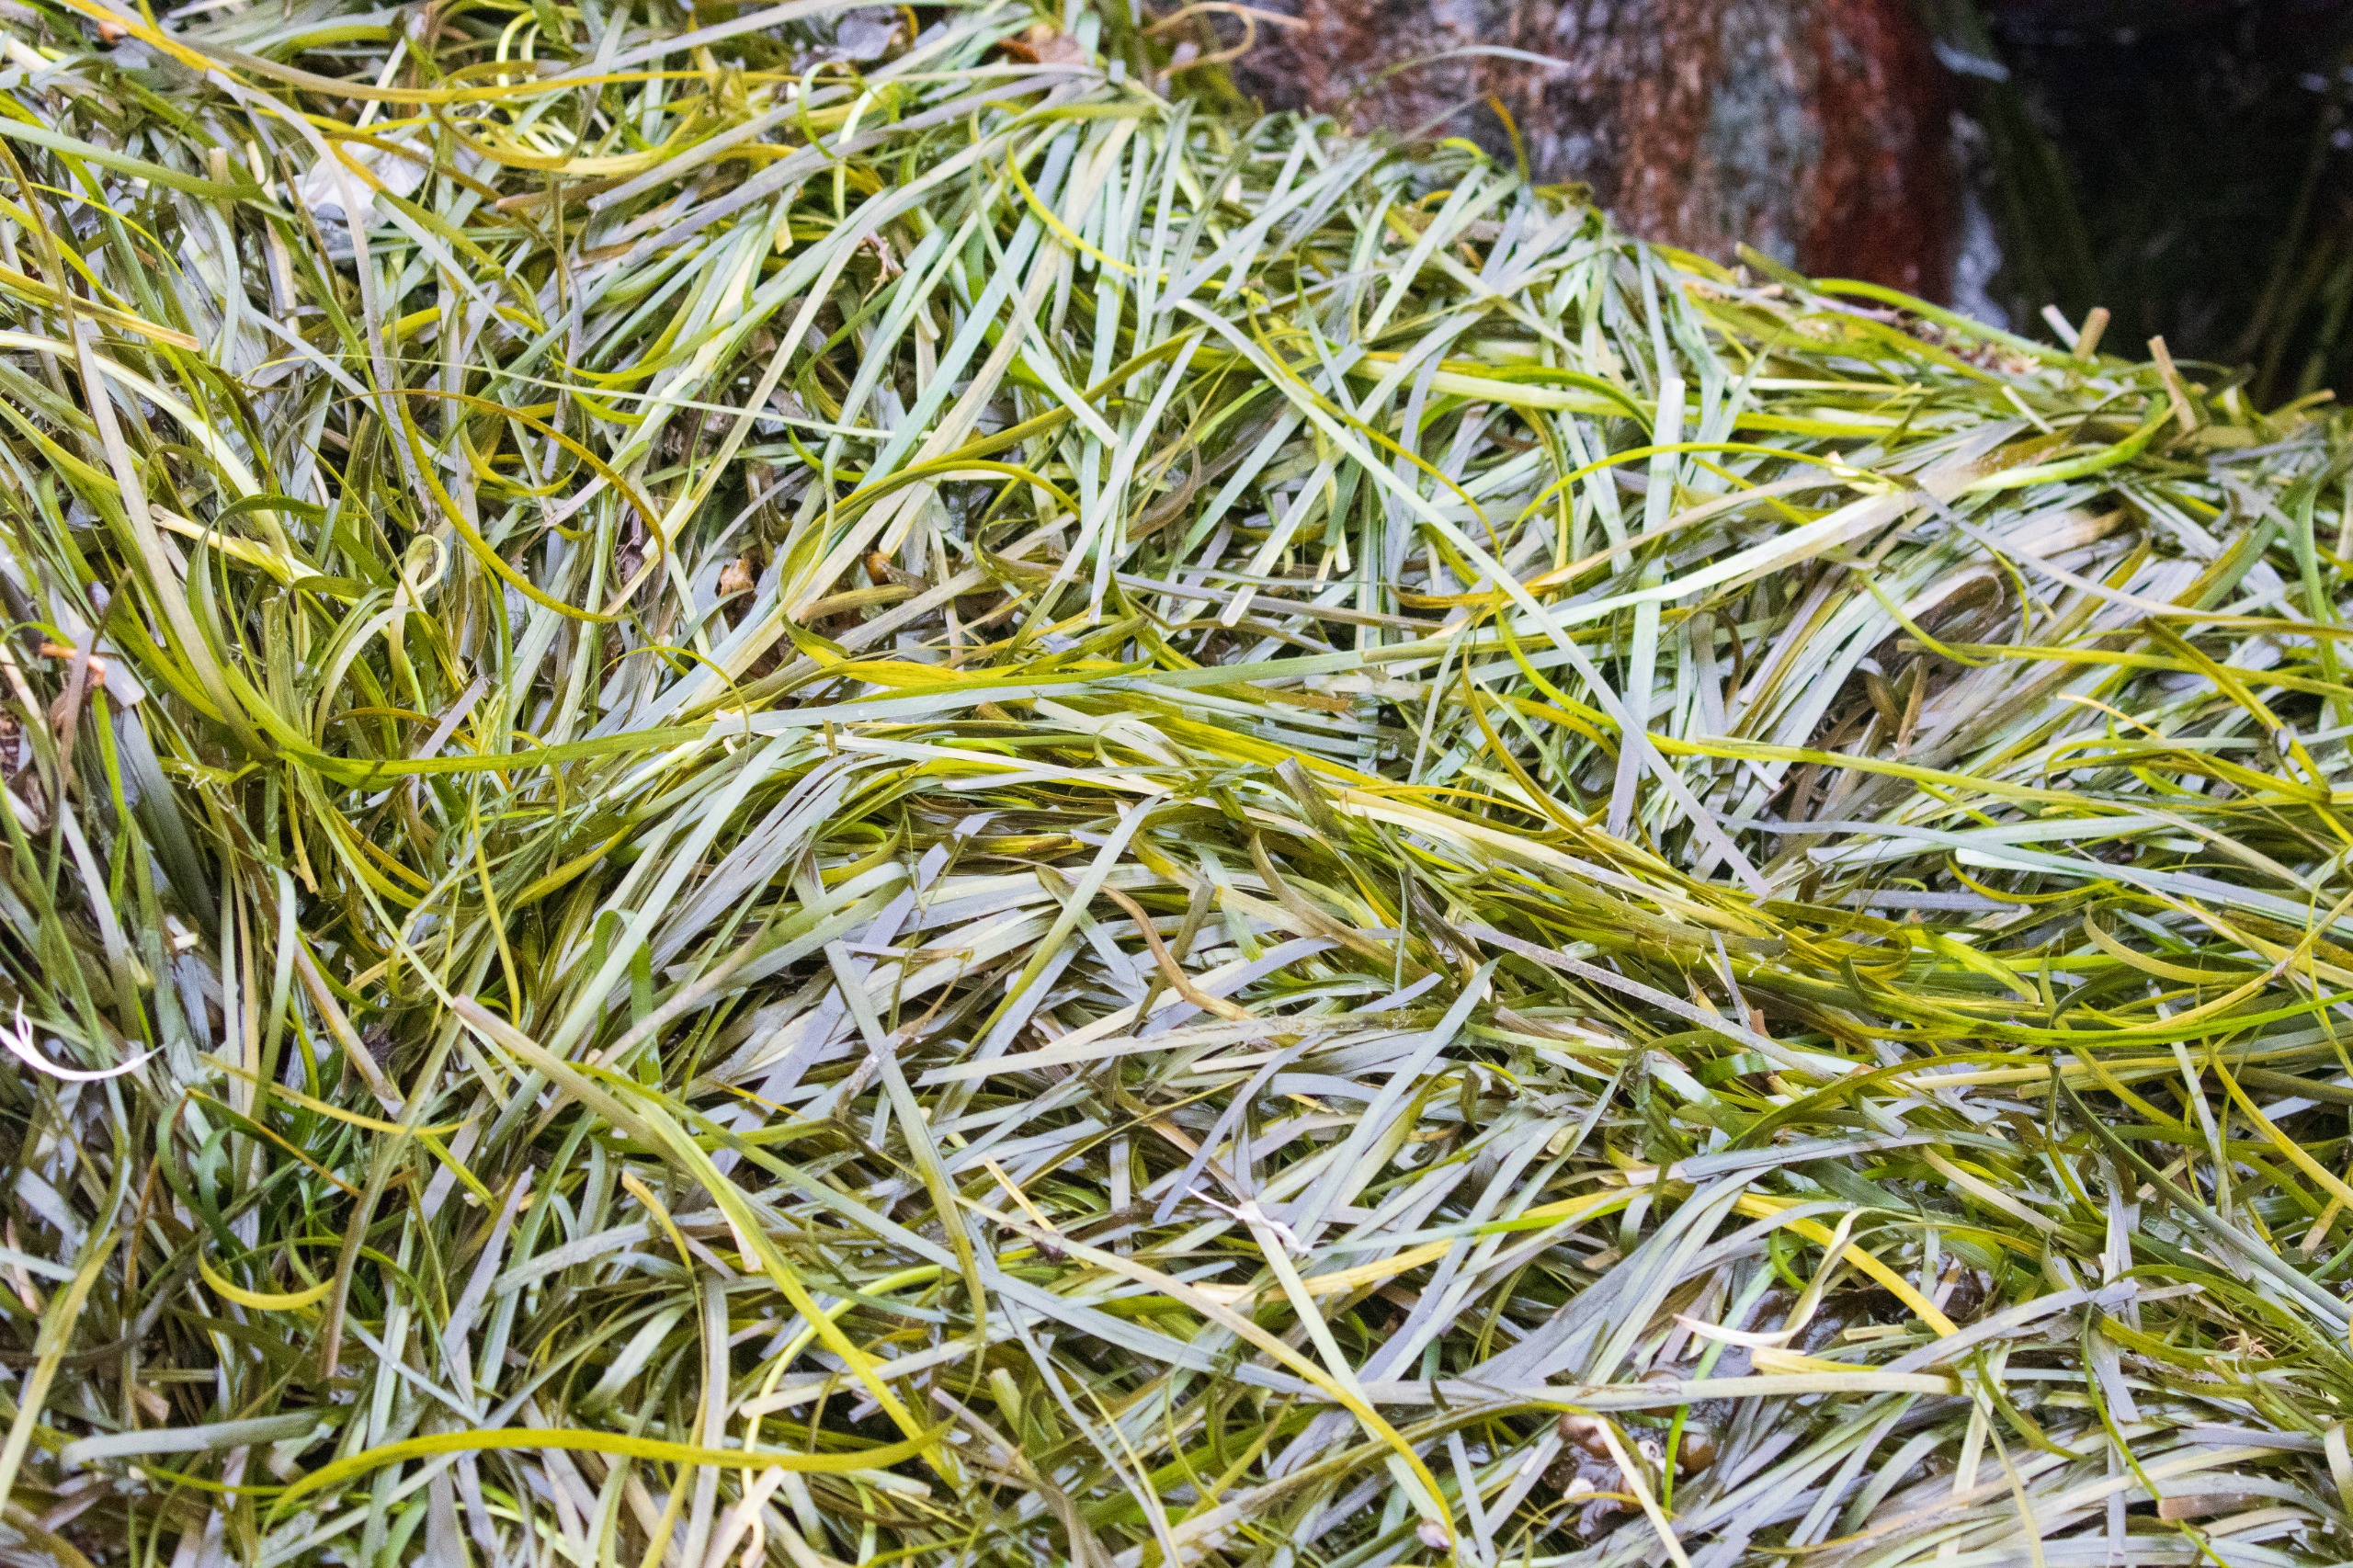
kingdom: Plantae
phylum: Tracheophyta
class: Liliopsida
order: Alismatales
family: Zosteraceae
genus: Zostera
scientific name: Zostera marina
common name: Almindelig bændeltang
